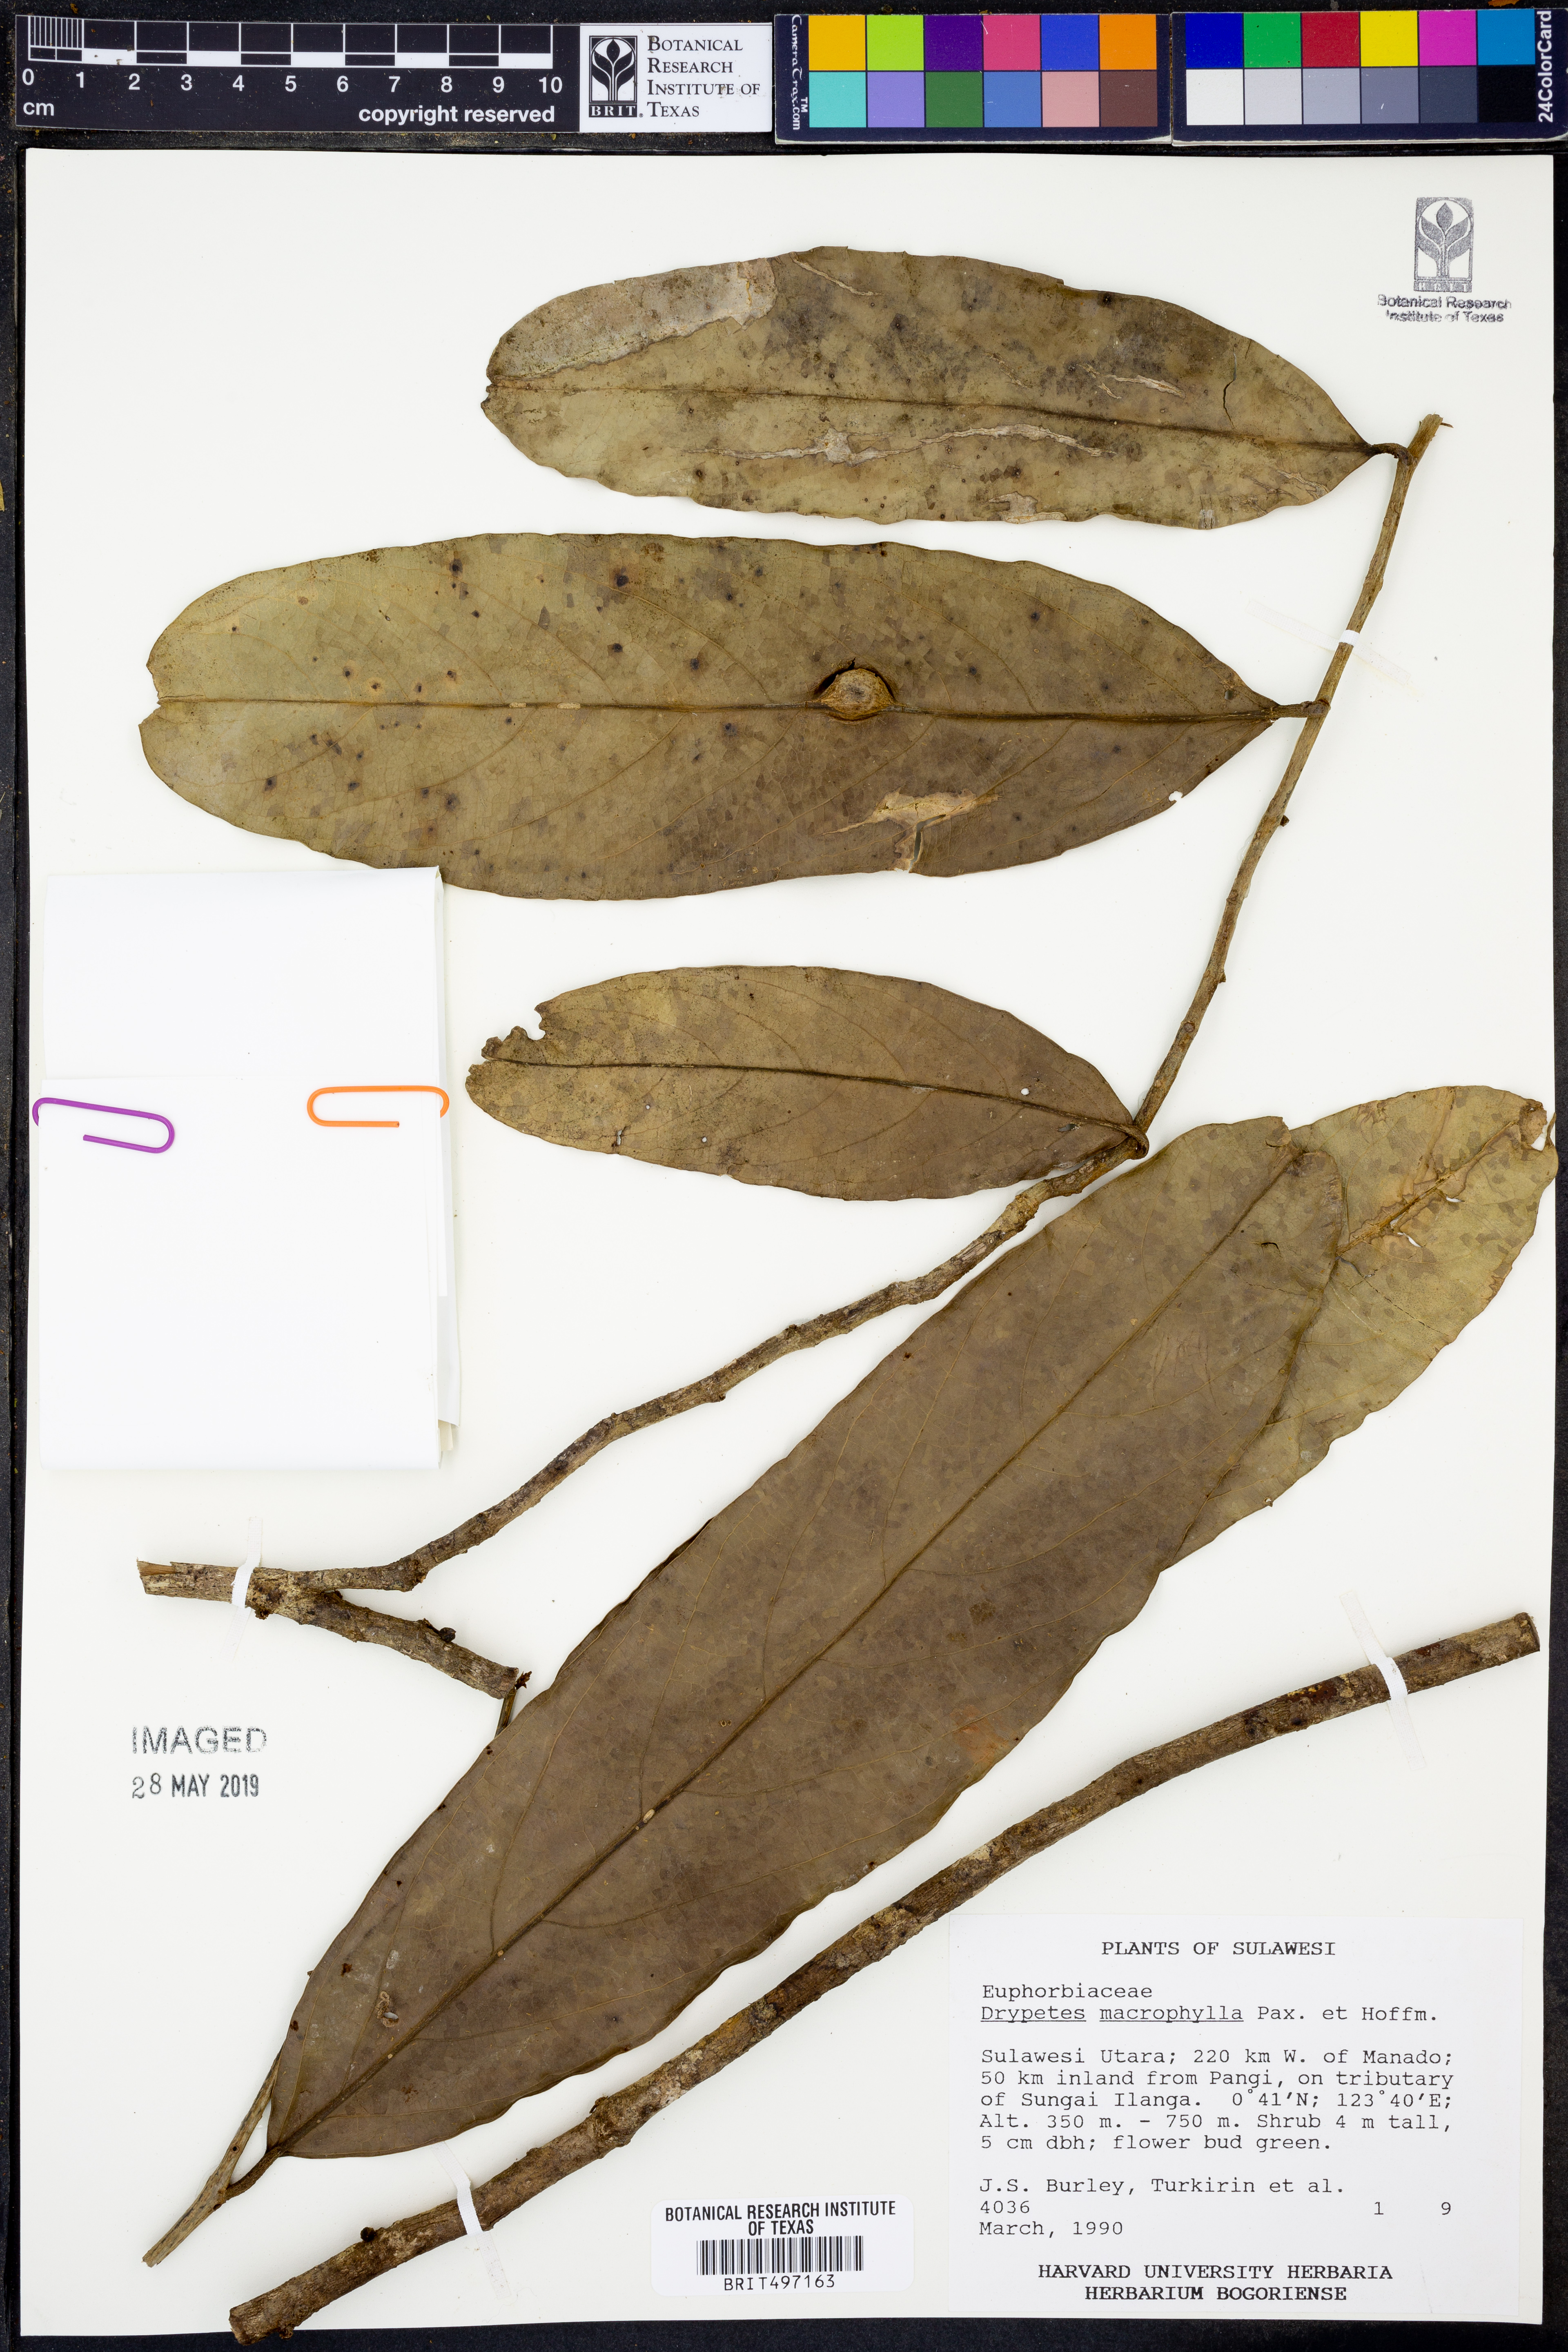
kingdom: Plantae
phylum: Tracheophyta
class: Magnoliopsida
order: Malpighiales
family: Putranjivaceae
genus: Drypetes
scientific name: Drypetes longifolia
